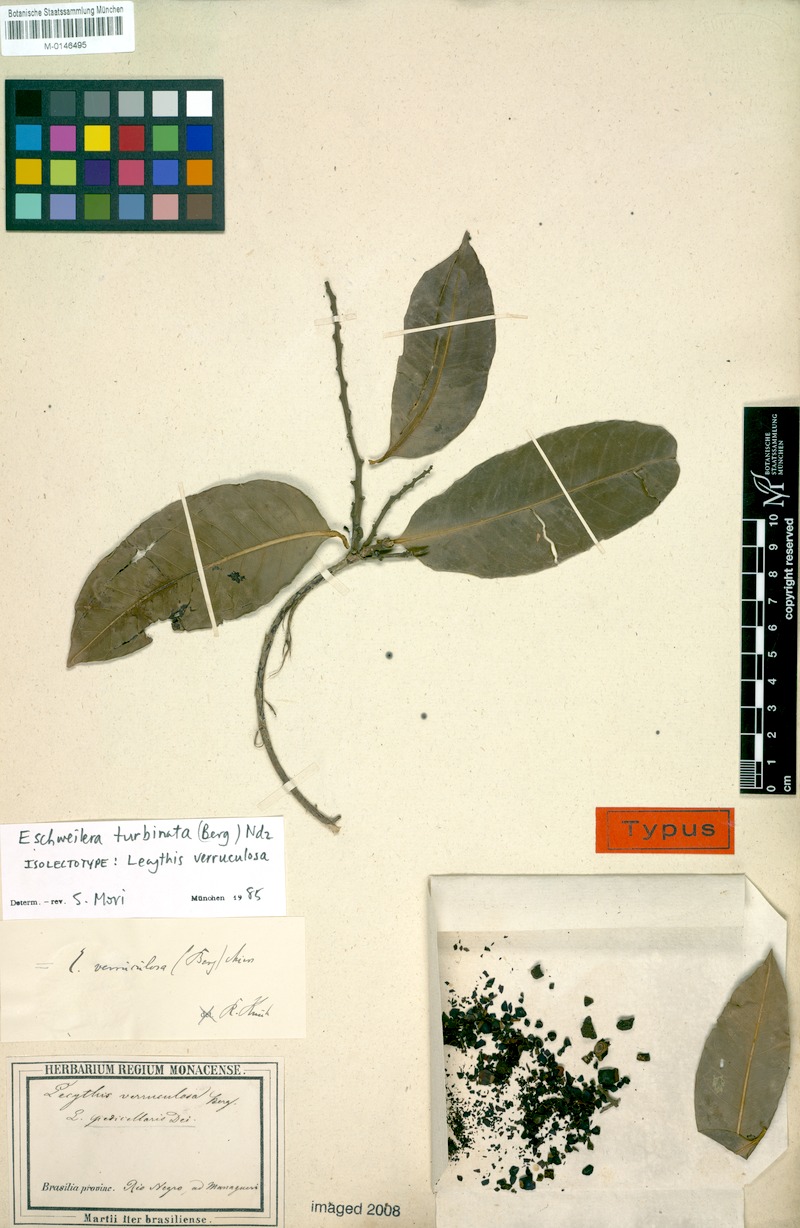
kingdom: Plantae
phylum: Tracheophyta
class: Magnoliopsida
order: Ericales
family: Lecythidaceae
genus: Eschweilera
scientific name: Eschweilera albiflora
